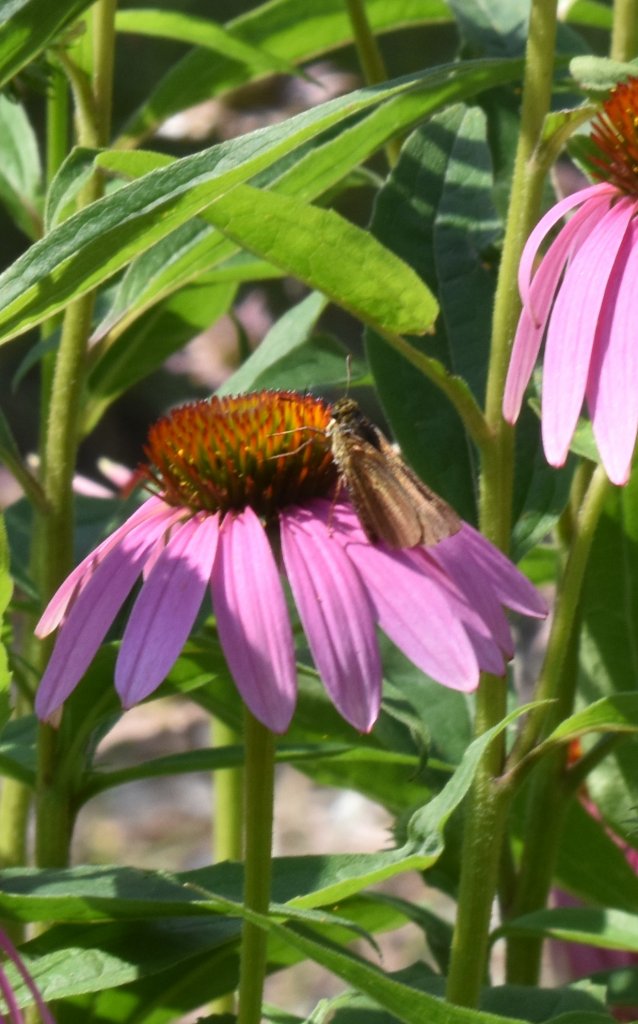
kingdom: Animalia
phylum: Arthropoda
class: Insecta
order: Lepidoptera
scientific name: Lepidoptera
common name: Butterflies
